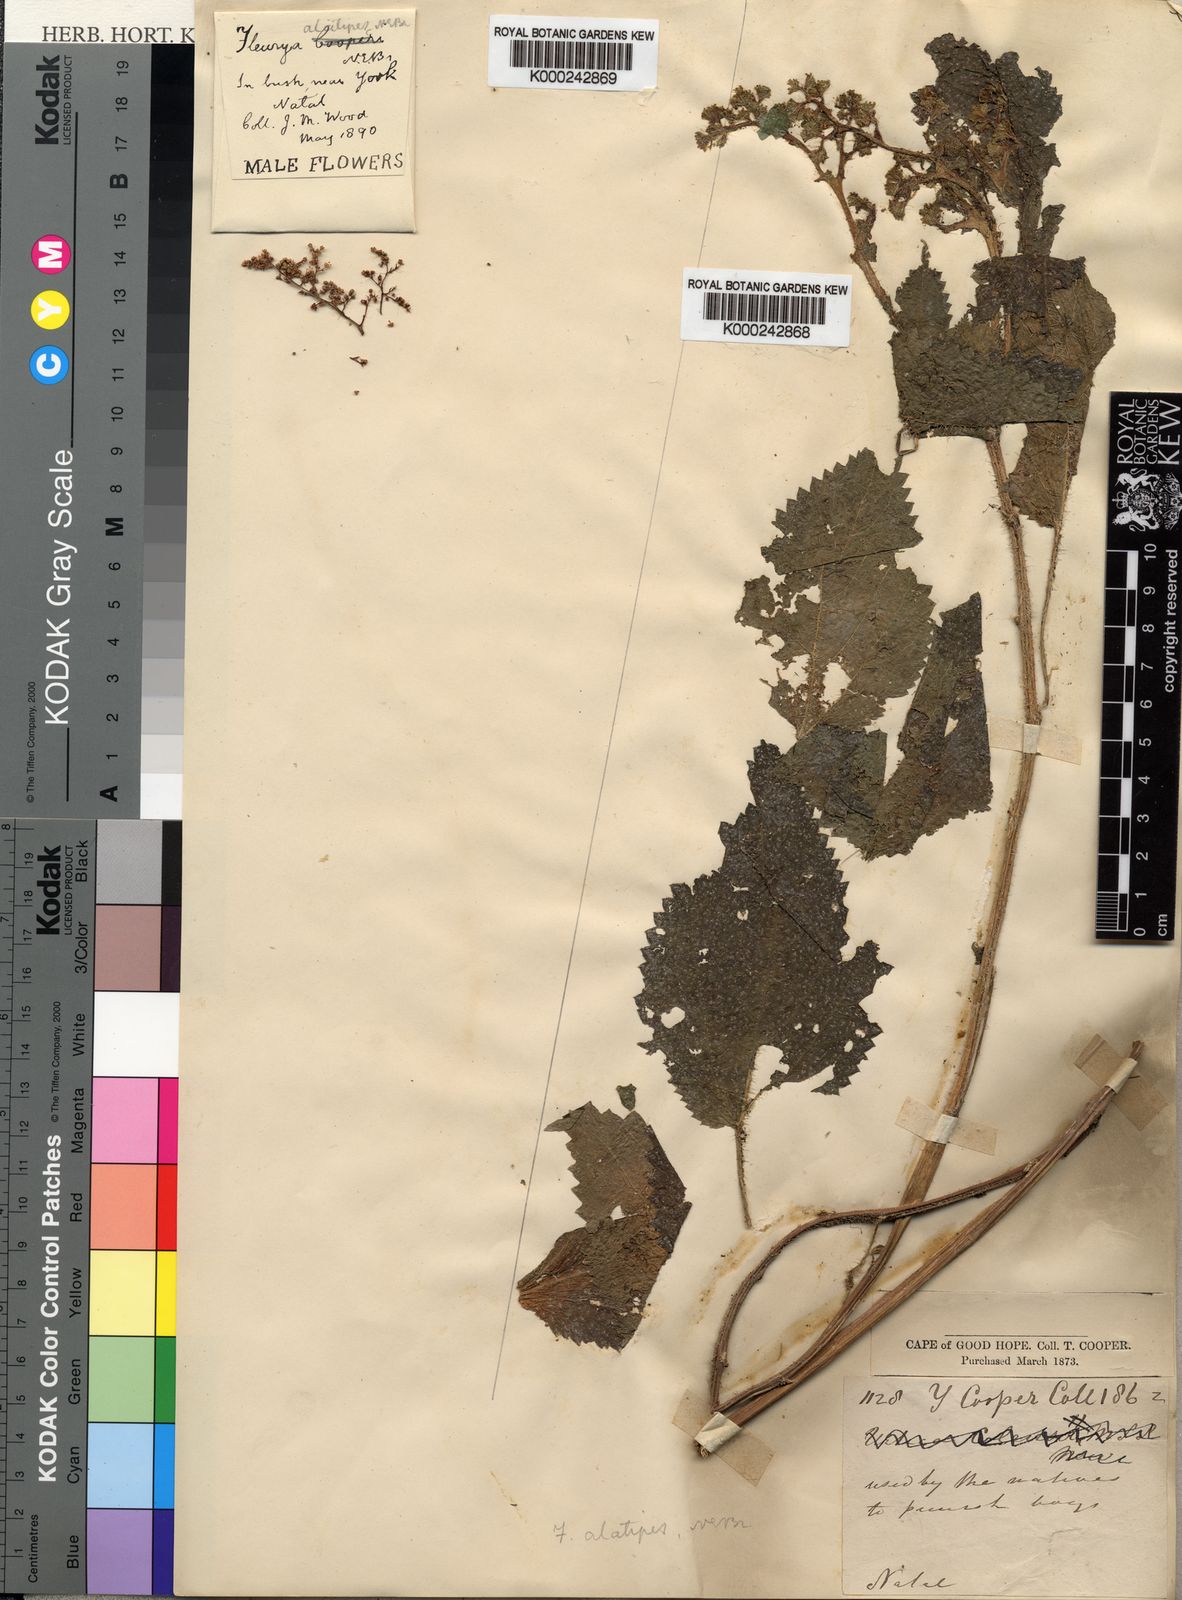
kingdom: Plantae
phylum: Tracheophyta
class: Magnoliopsida
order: Rosales
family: Urticaceae
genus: Laportea
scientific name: Laportea alatipes
